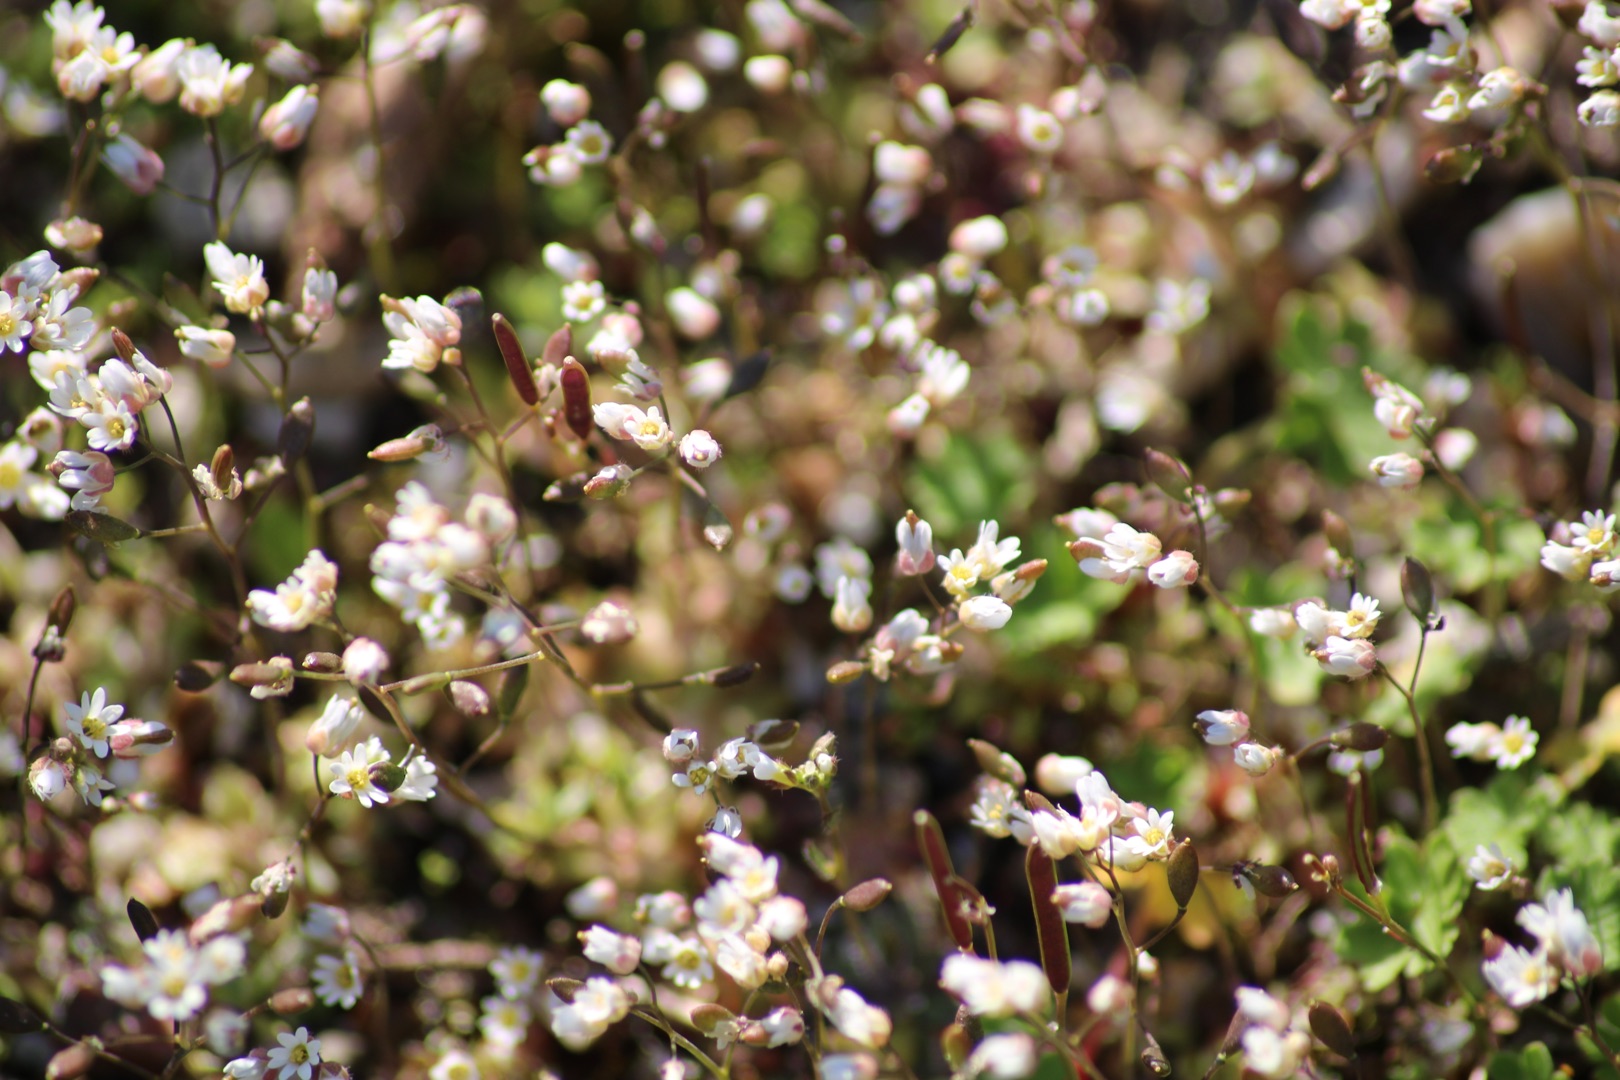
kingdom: Plantae
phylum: Tracheophyta
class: Magnoliopsida
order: Brassicales
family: Brassicaceae
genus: Draba
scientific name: Draba verna
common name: Vår-gæslingeblomst
